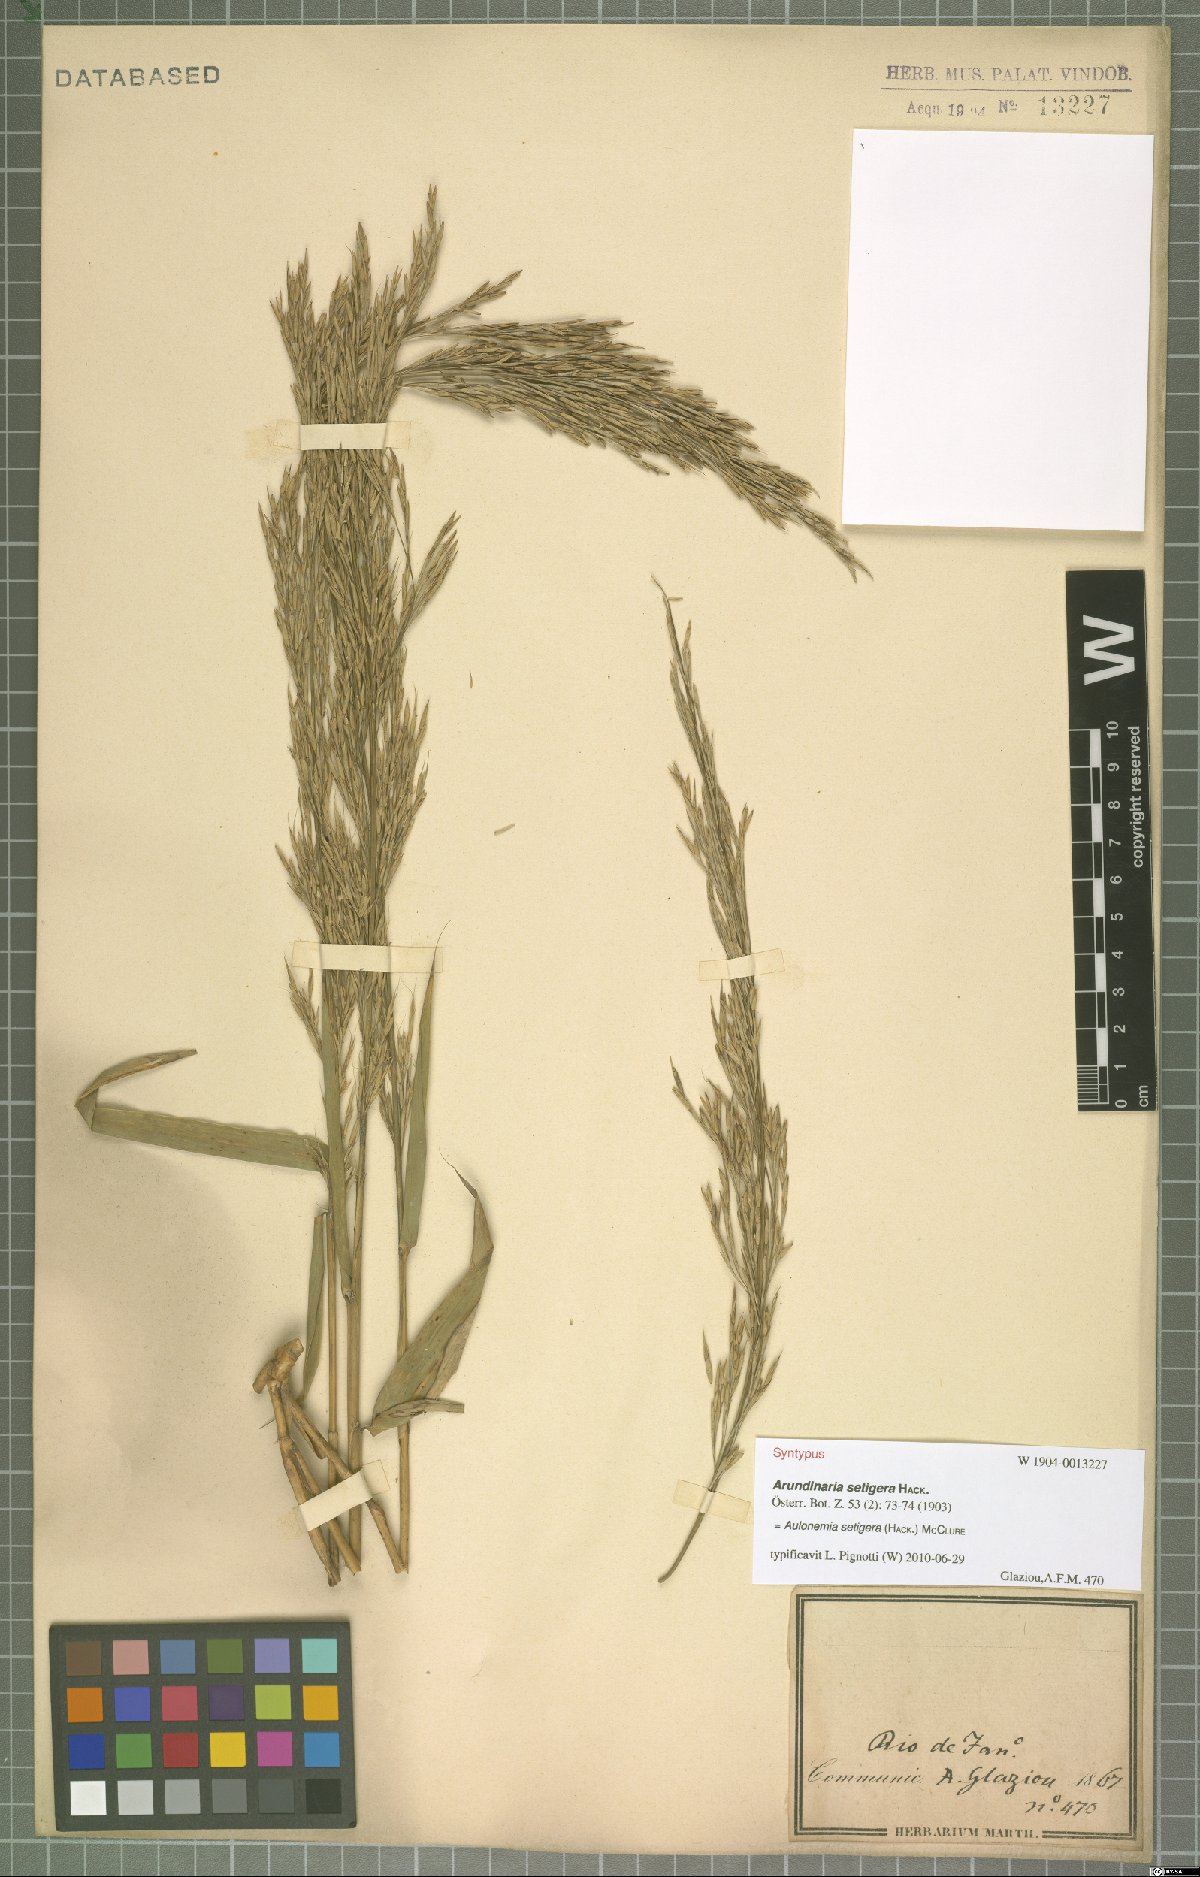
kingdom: Plantae
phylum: Tracheophyta
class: Liliopsida
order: Poales
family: Poaceae
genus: Aulonemia
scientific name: Aulonemia setigera
